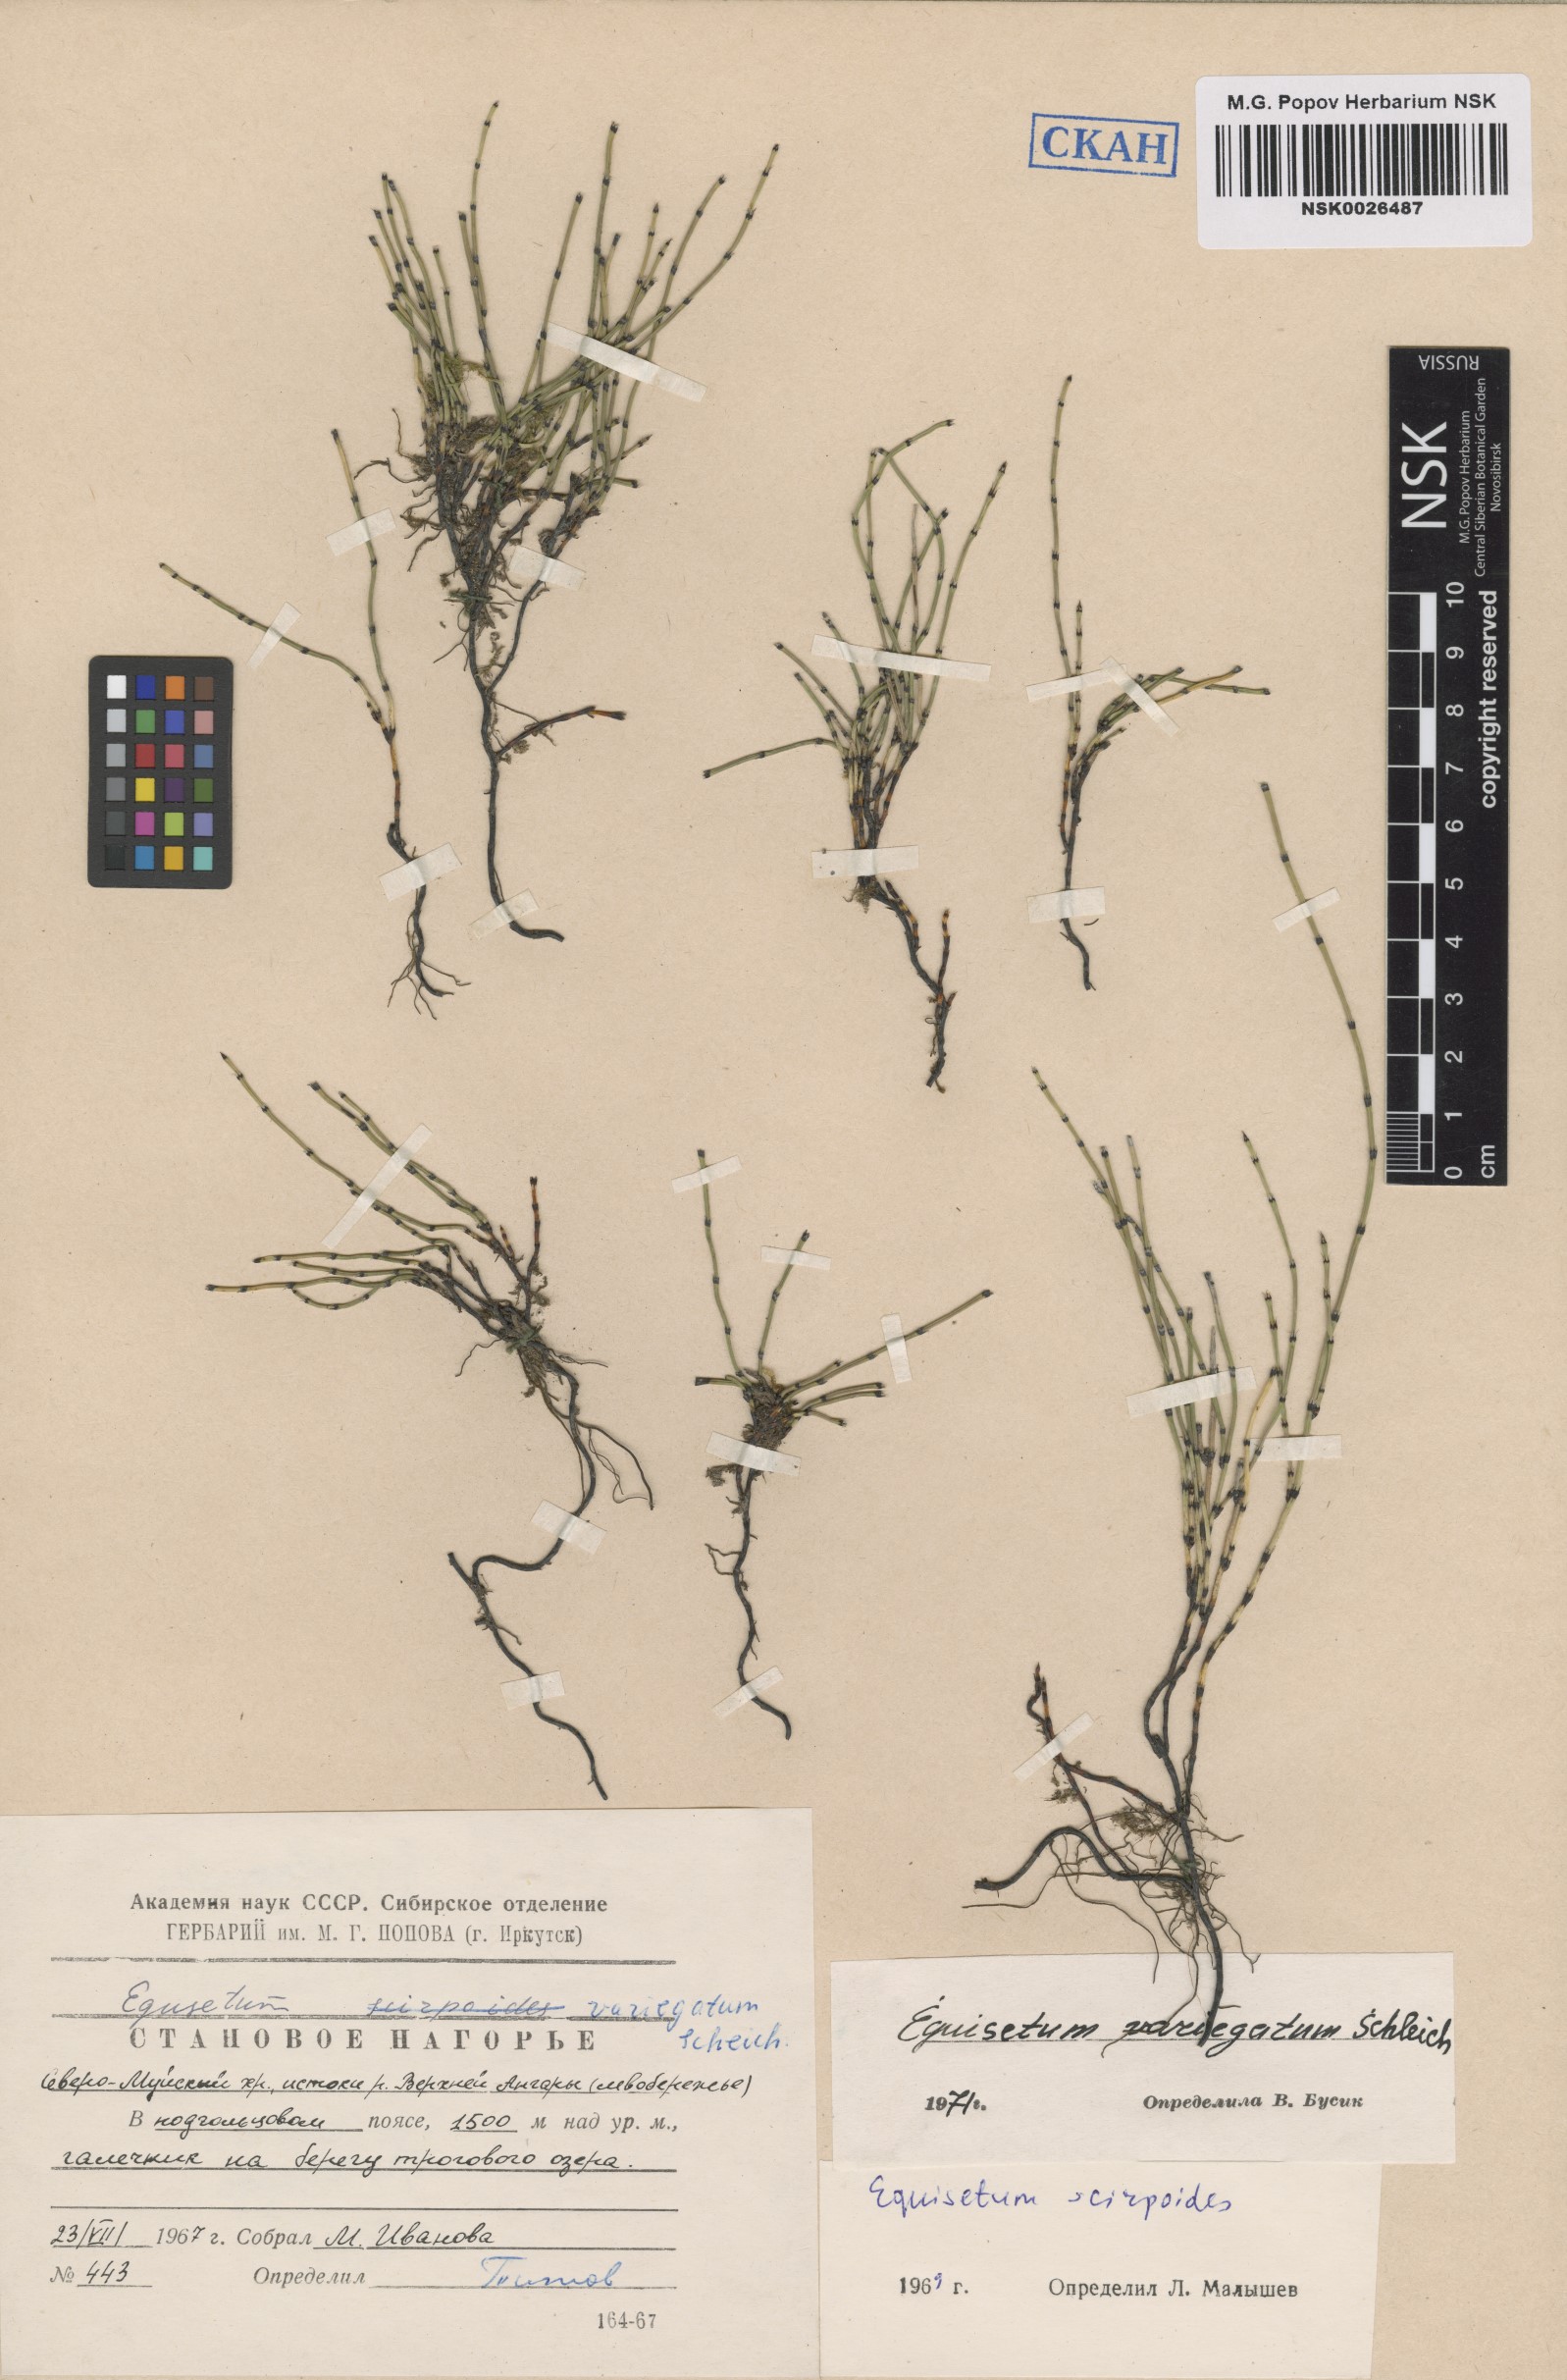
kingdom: Plantae
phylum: Tracheophyta
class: Polypodiopsida
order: Equisetales
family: Equisetaceae
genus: Equisetum
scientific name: Equisetum variegatum
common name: Variegated horsetail
